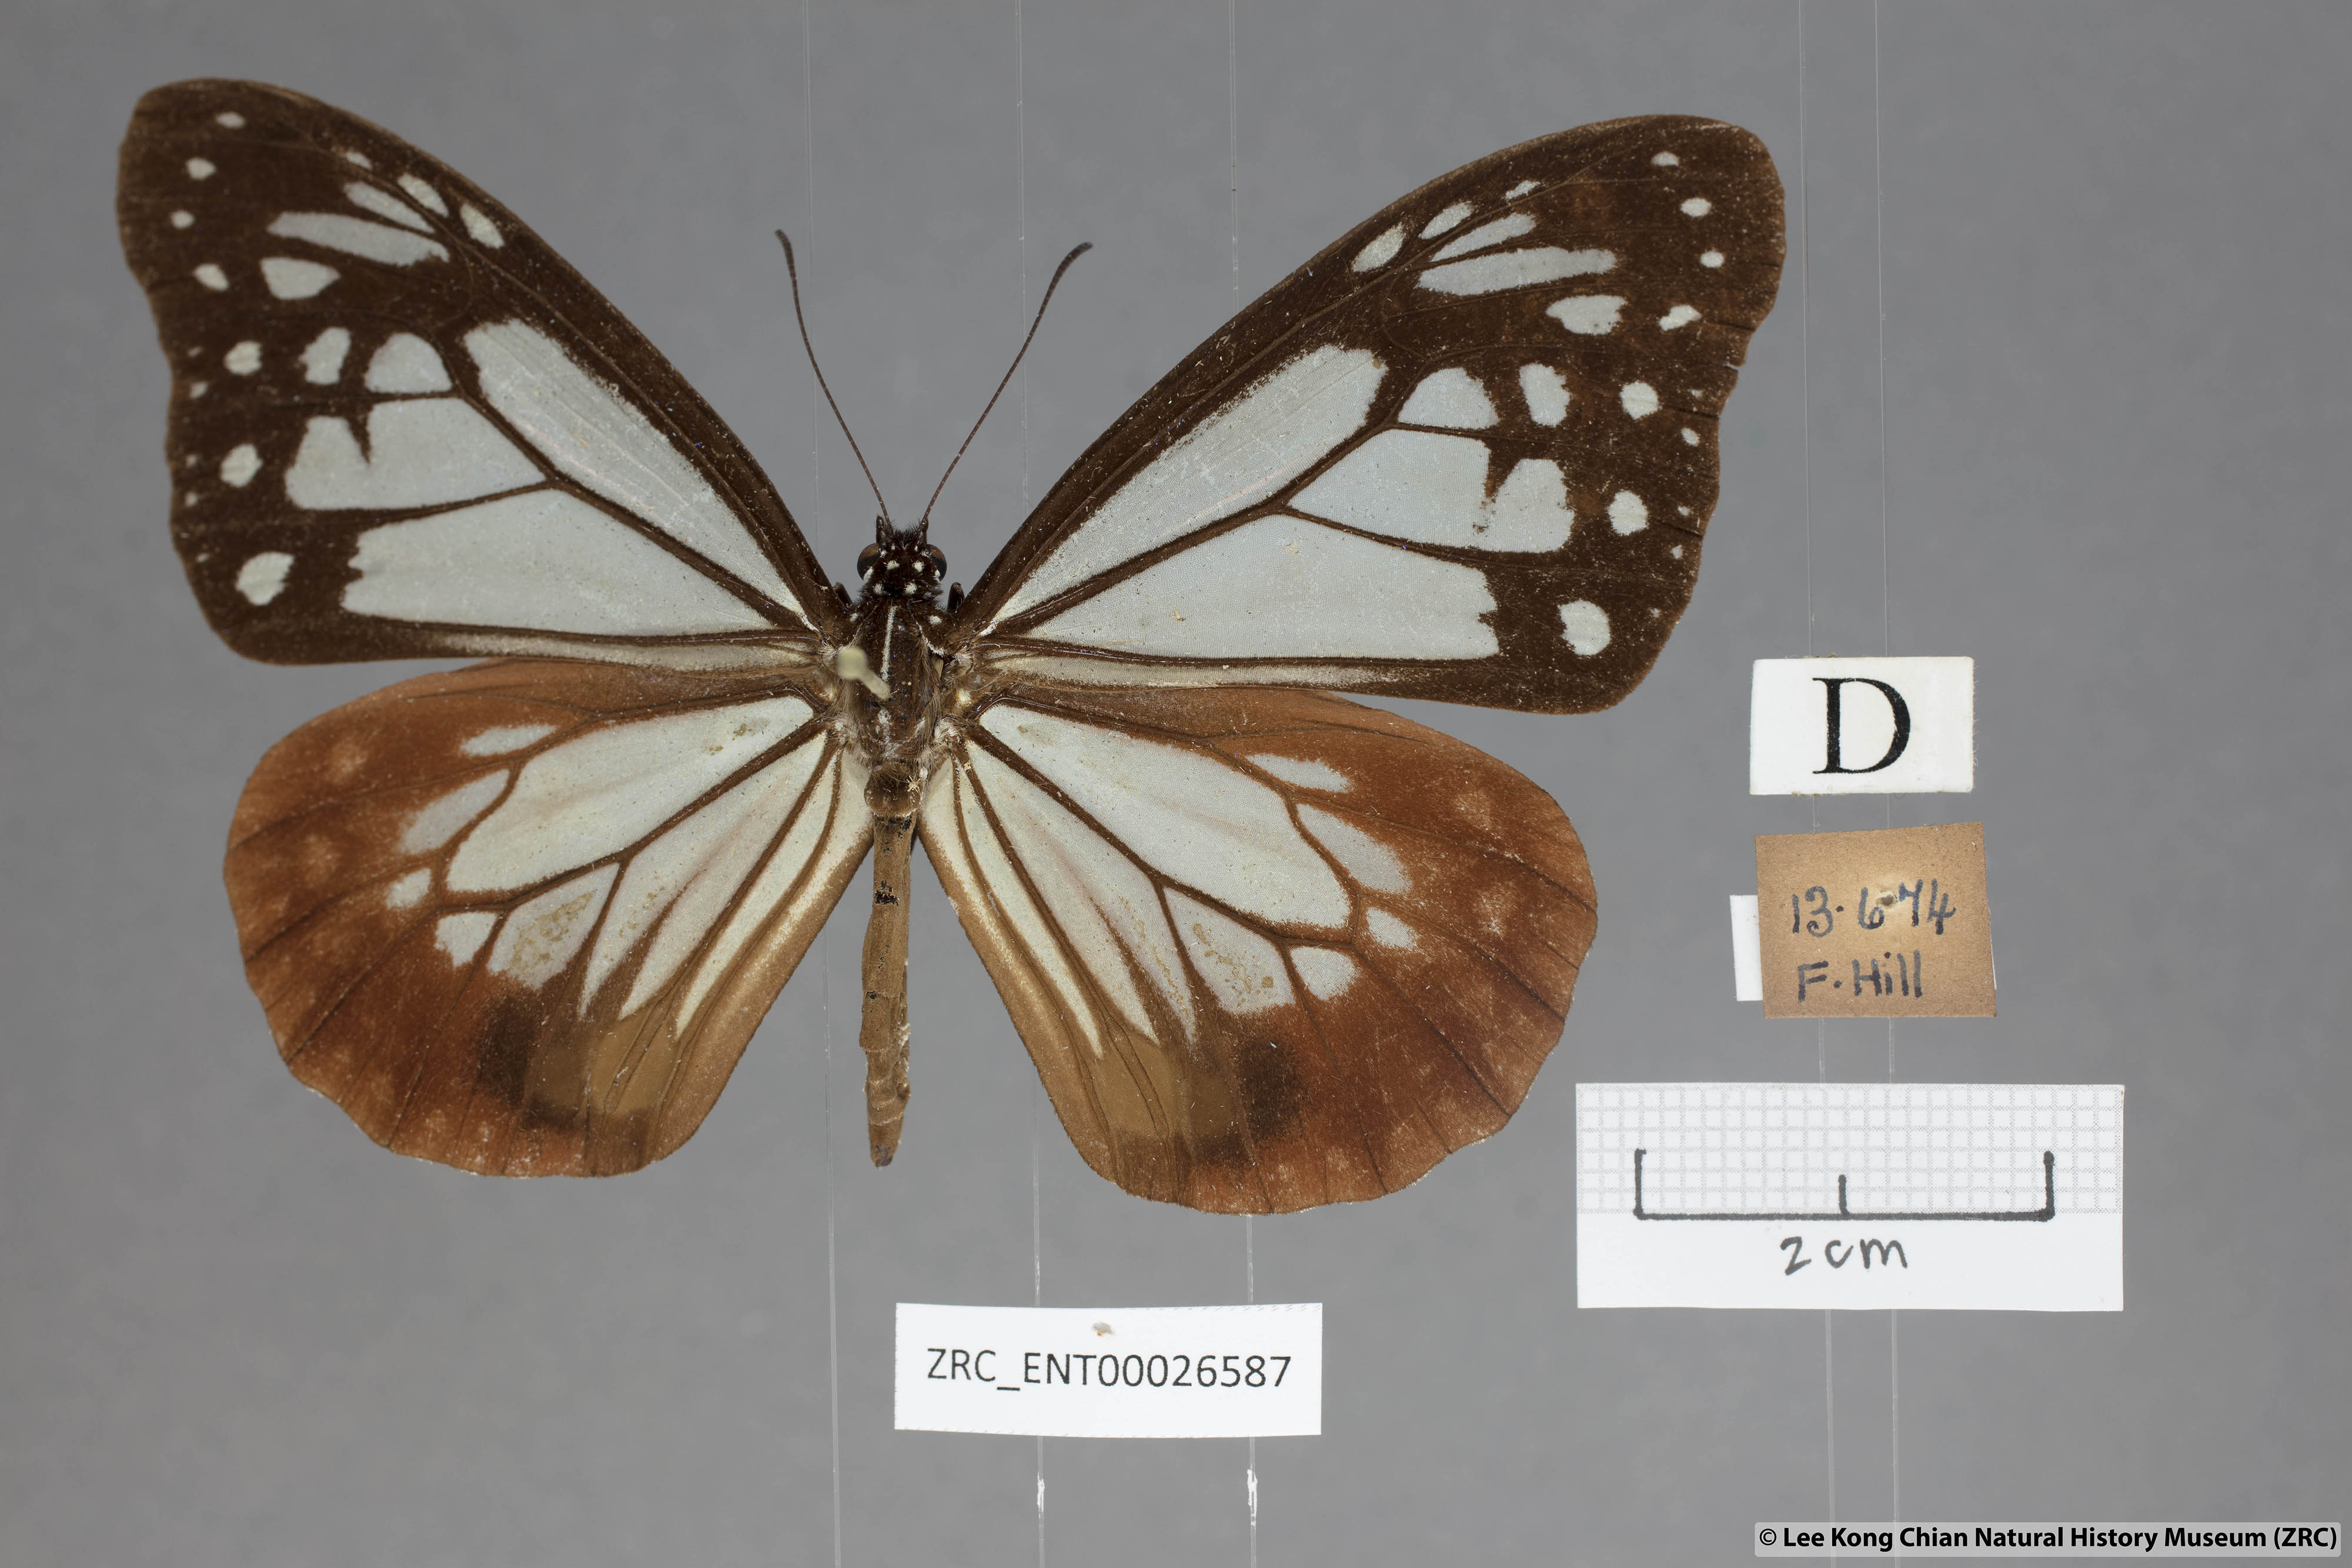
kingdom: Animalia
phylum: Arthropoda
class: Insecta
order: Lepidoptera
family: Nymphalidae
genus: Parantica
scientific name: Parantica sita
